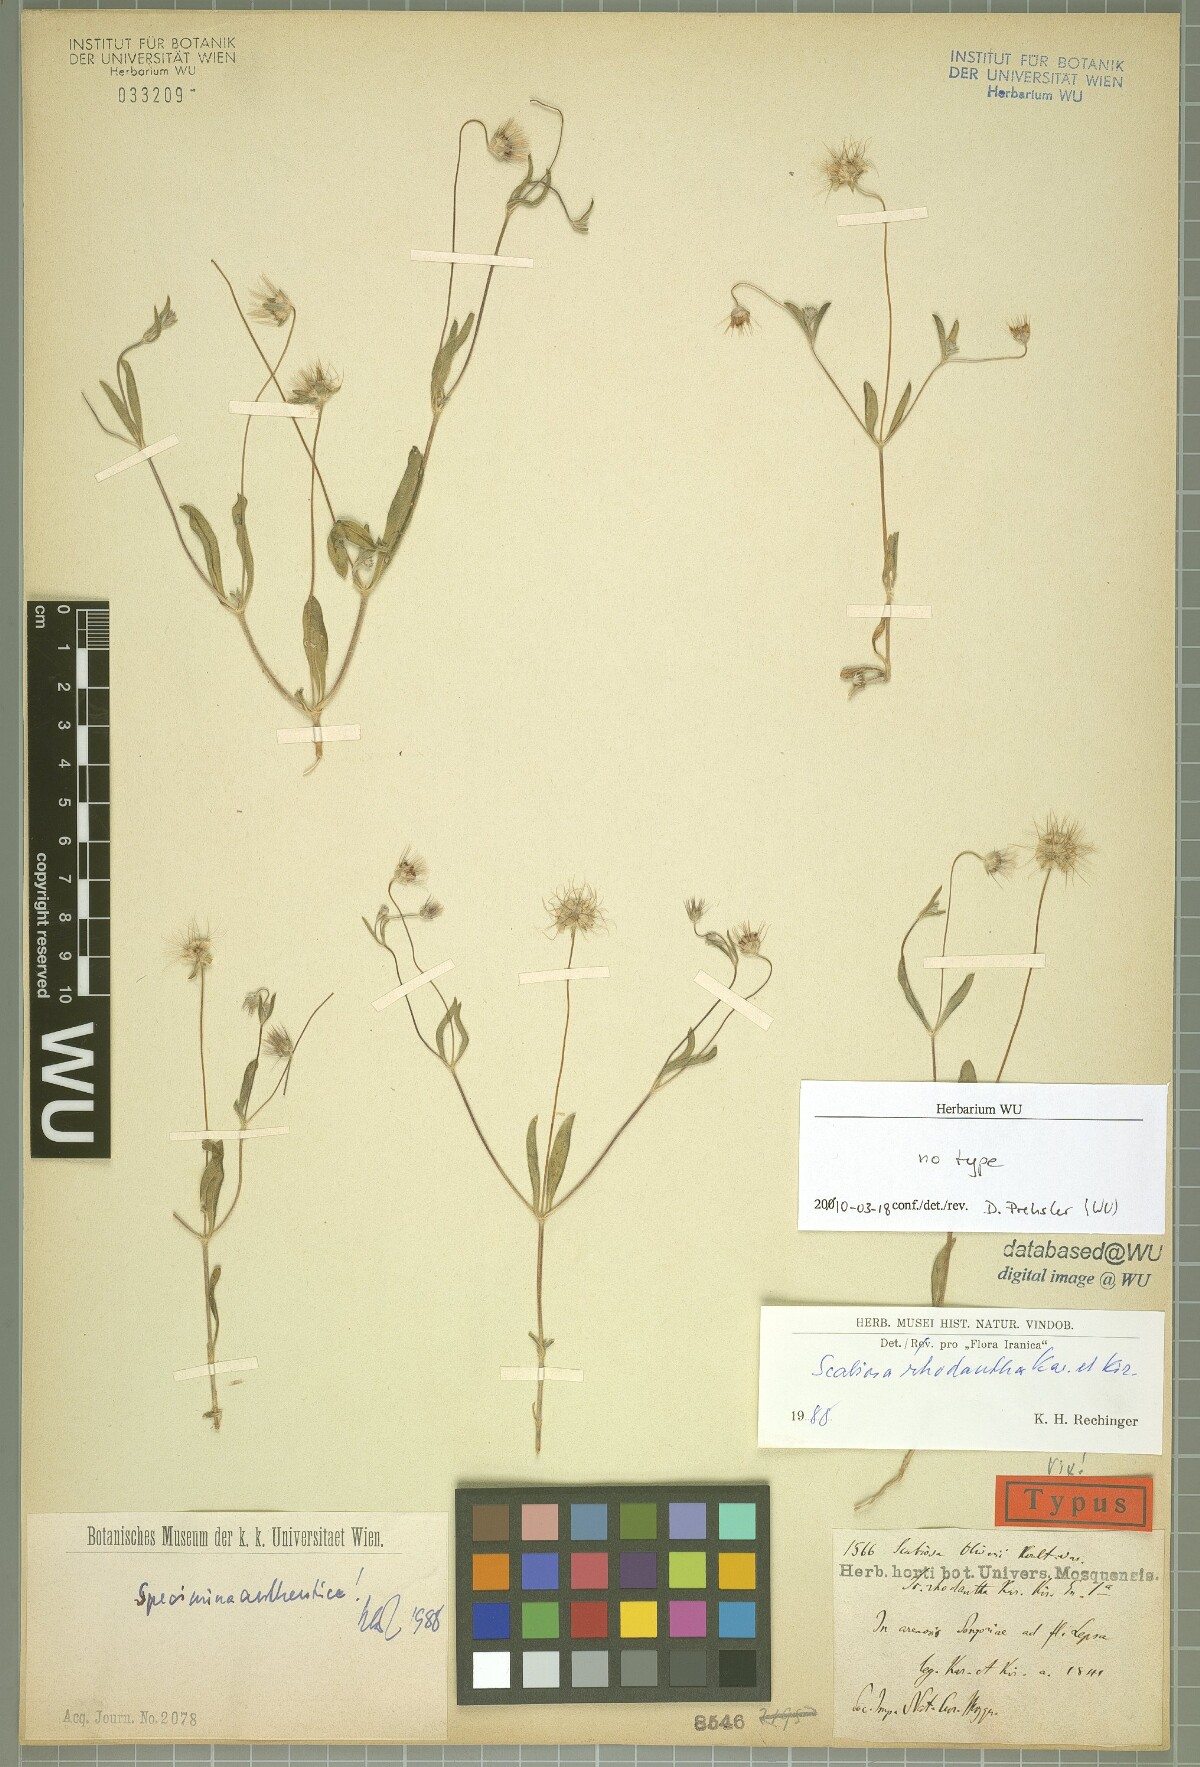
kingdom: Plantae
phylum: Tracheophyta
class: Magnoliopsida
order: Dipsacales
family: Caprifoliaceae
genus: Lomelosia
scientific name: Lomelosia rhodantha
